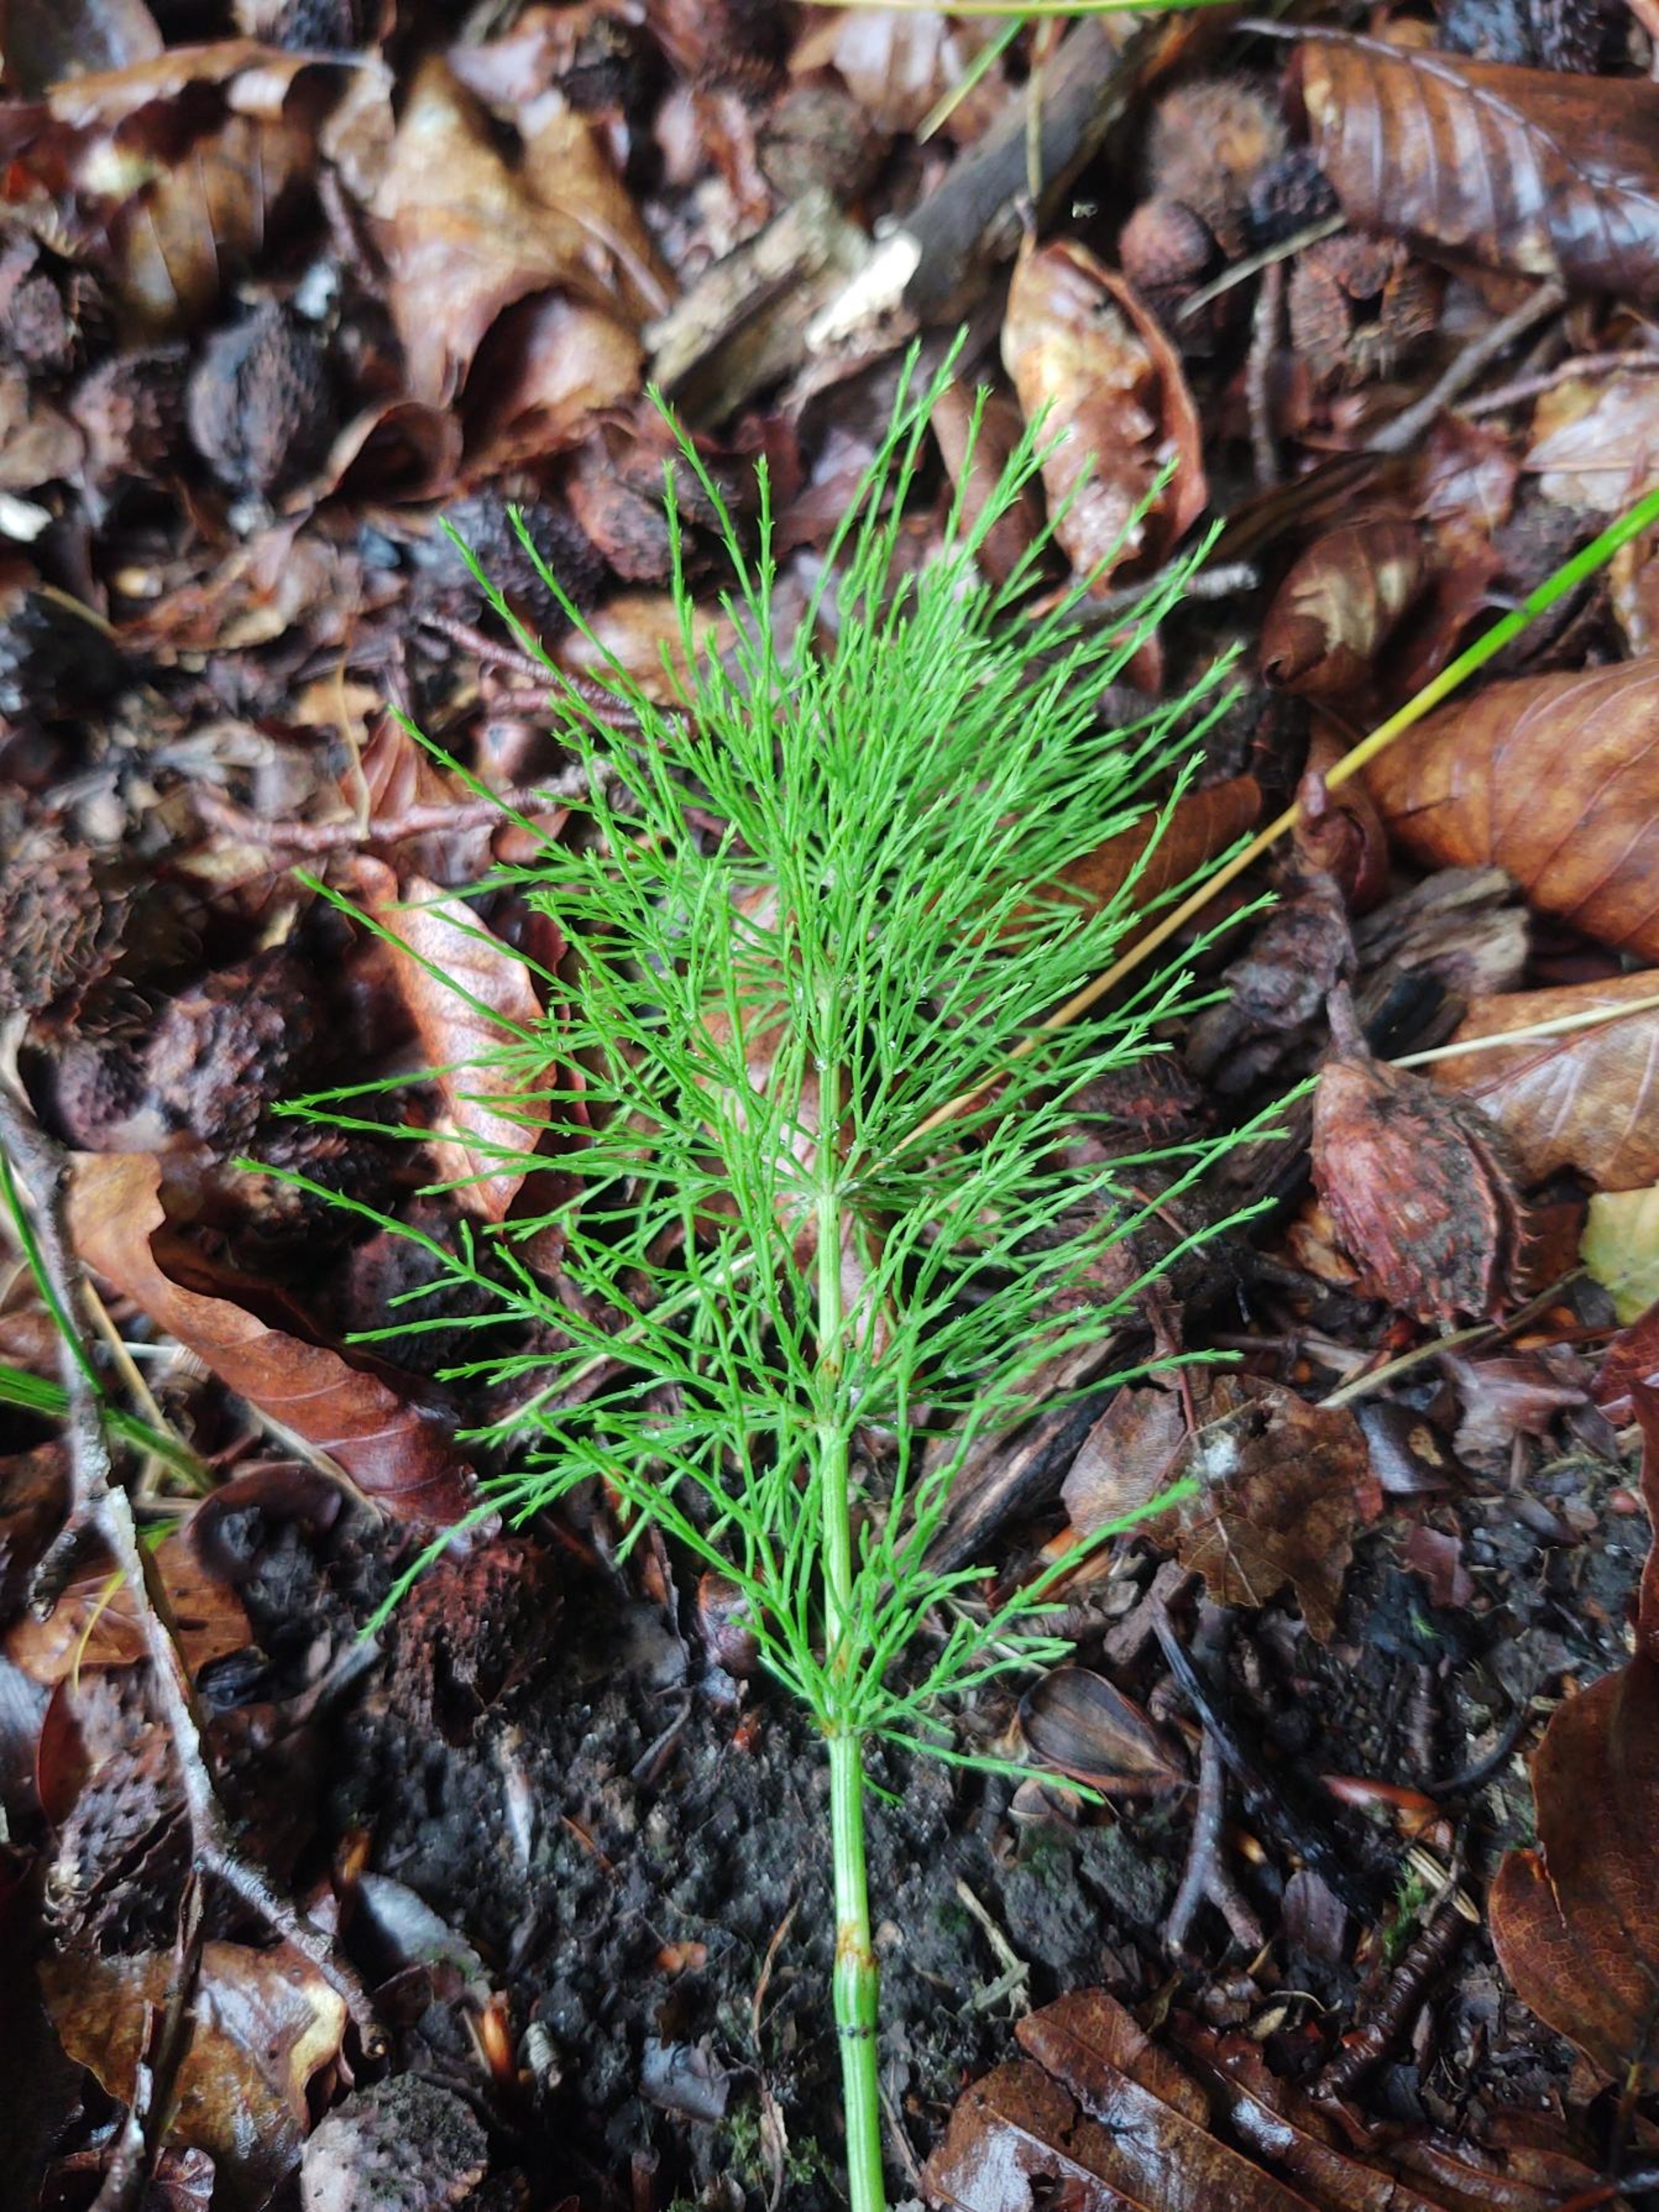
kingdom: Plantae
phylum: Tracheophyta
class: Polypodiopsida
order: Equisetales
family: Equisetaceae
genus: Equisetum
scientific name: Equisetum sylvaticum
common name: Skov-padderok
